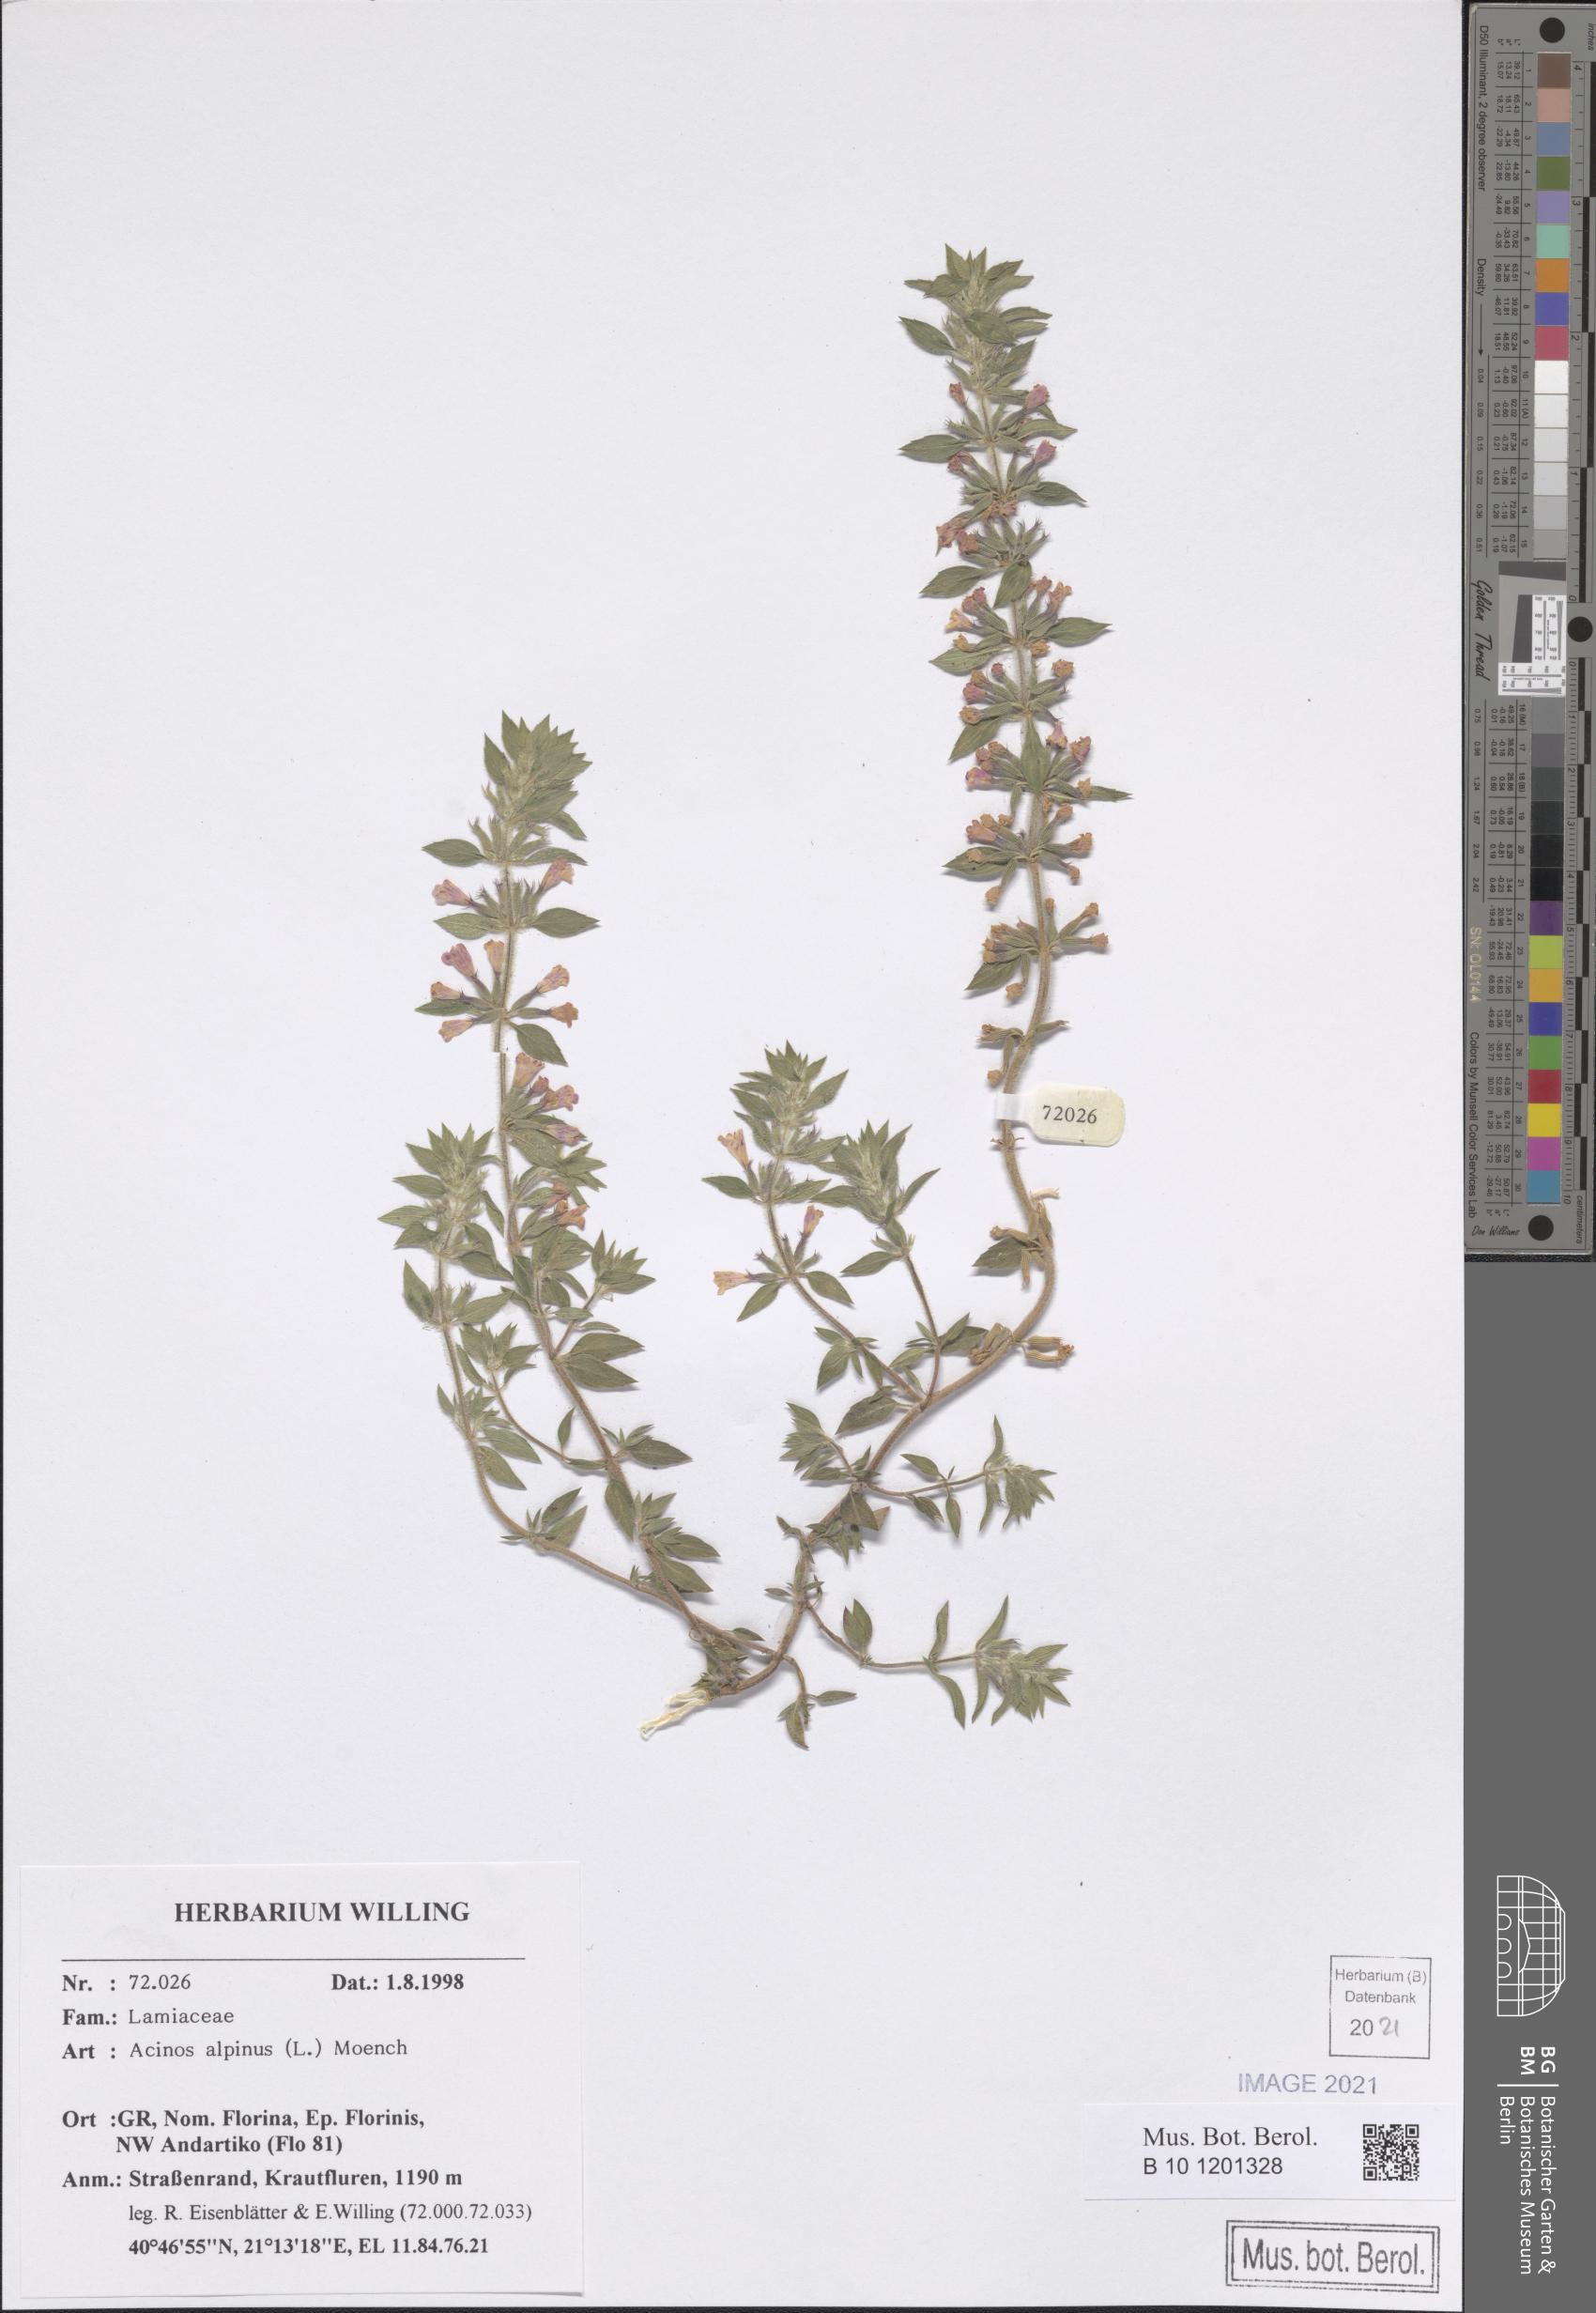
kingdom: Plantae
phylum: Tracheophyta
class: Magnoliopsida
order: Lamiales
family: Lamiaceae
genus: Clinopodium
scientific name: Clinopodium alpinum
